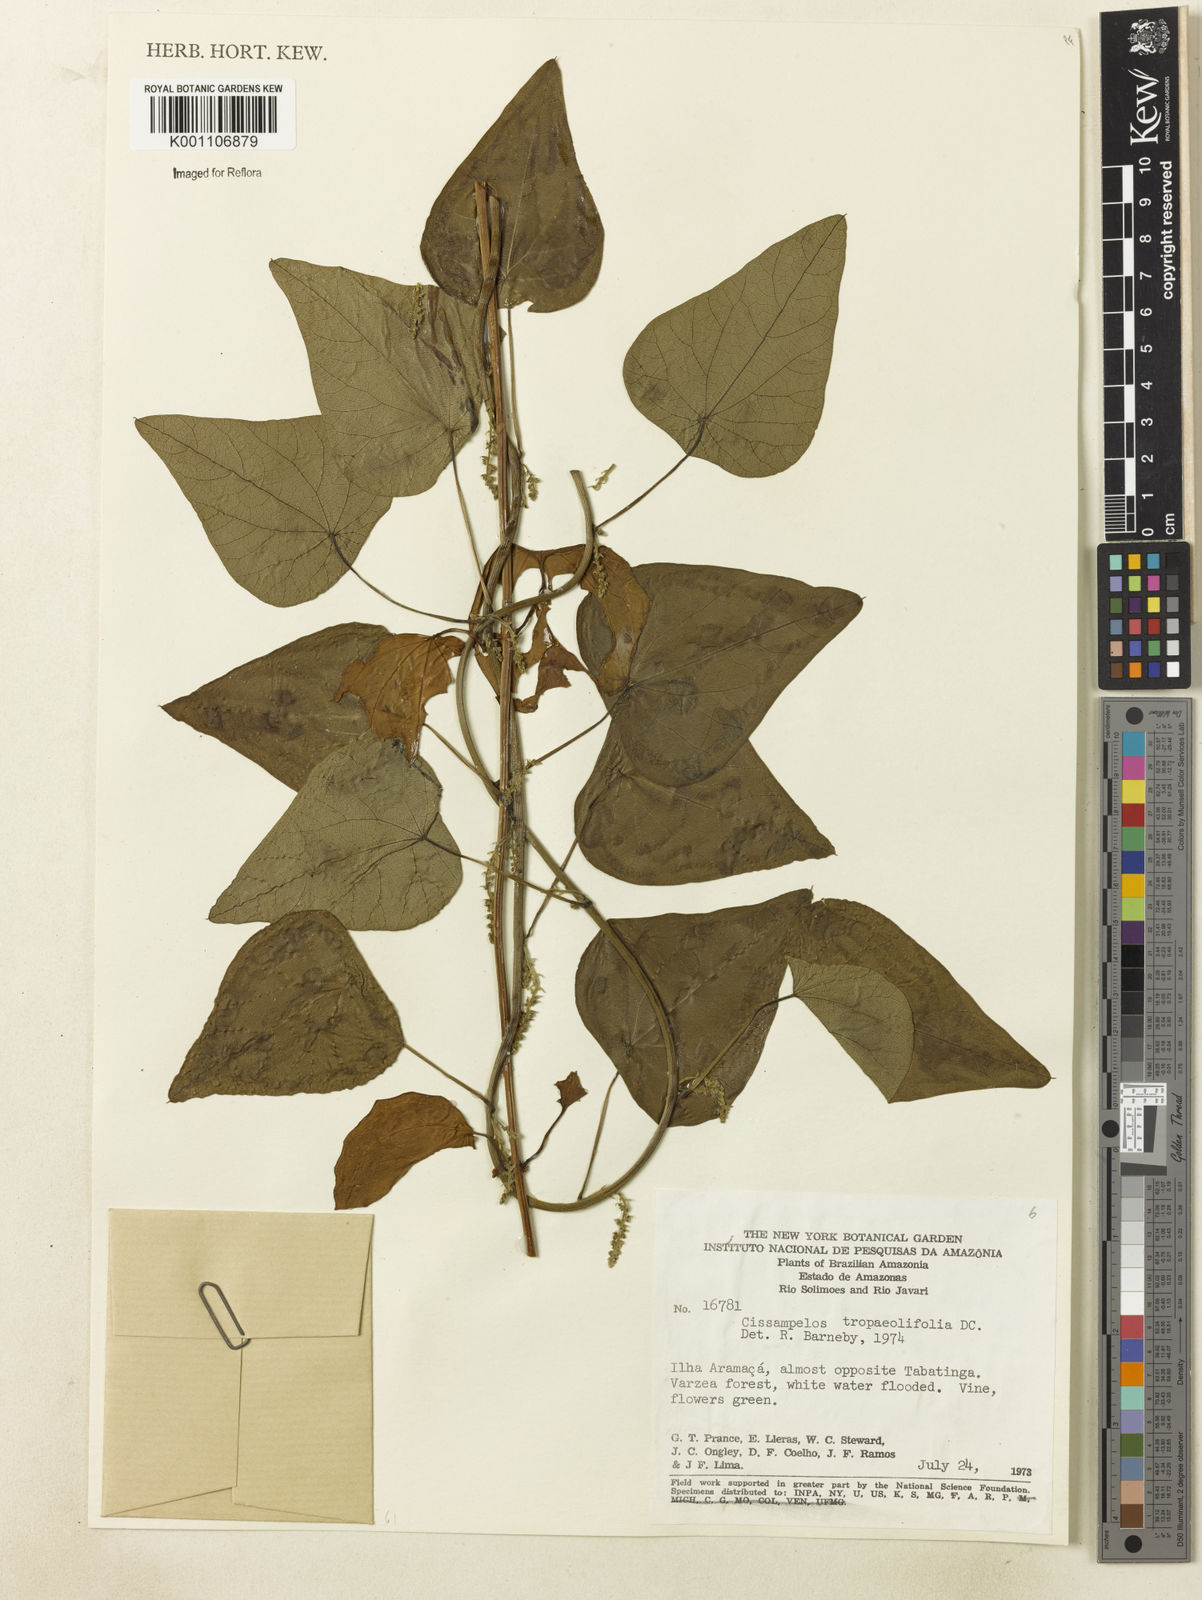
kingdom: Plantae
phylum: Tracheophyta
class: Magnoliopsida
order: Ranunculales
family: Menispermaceae
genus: Cissampelos
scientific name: Cissampelos tropaeolifolia
